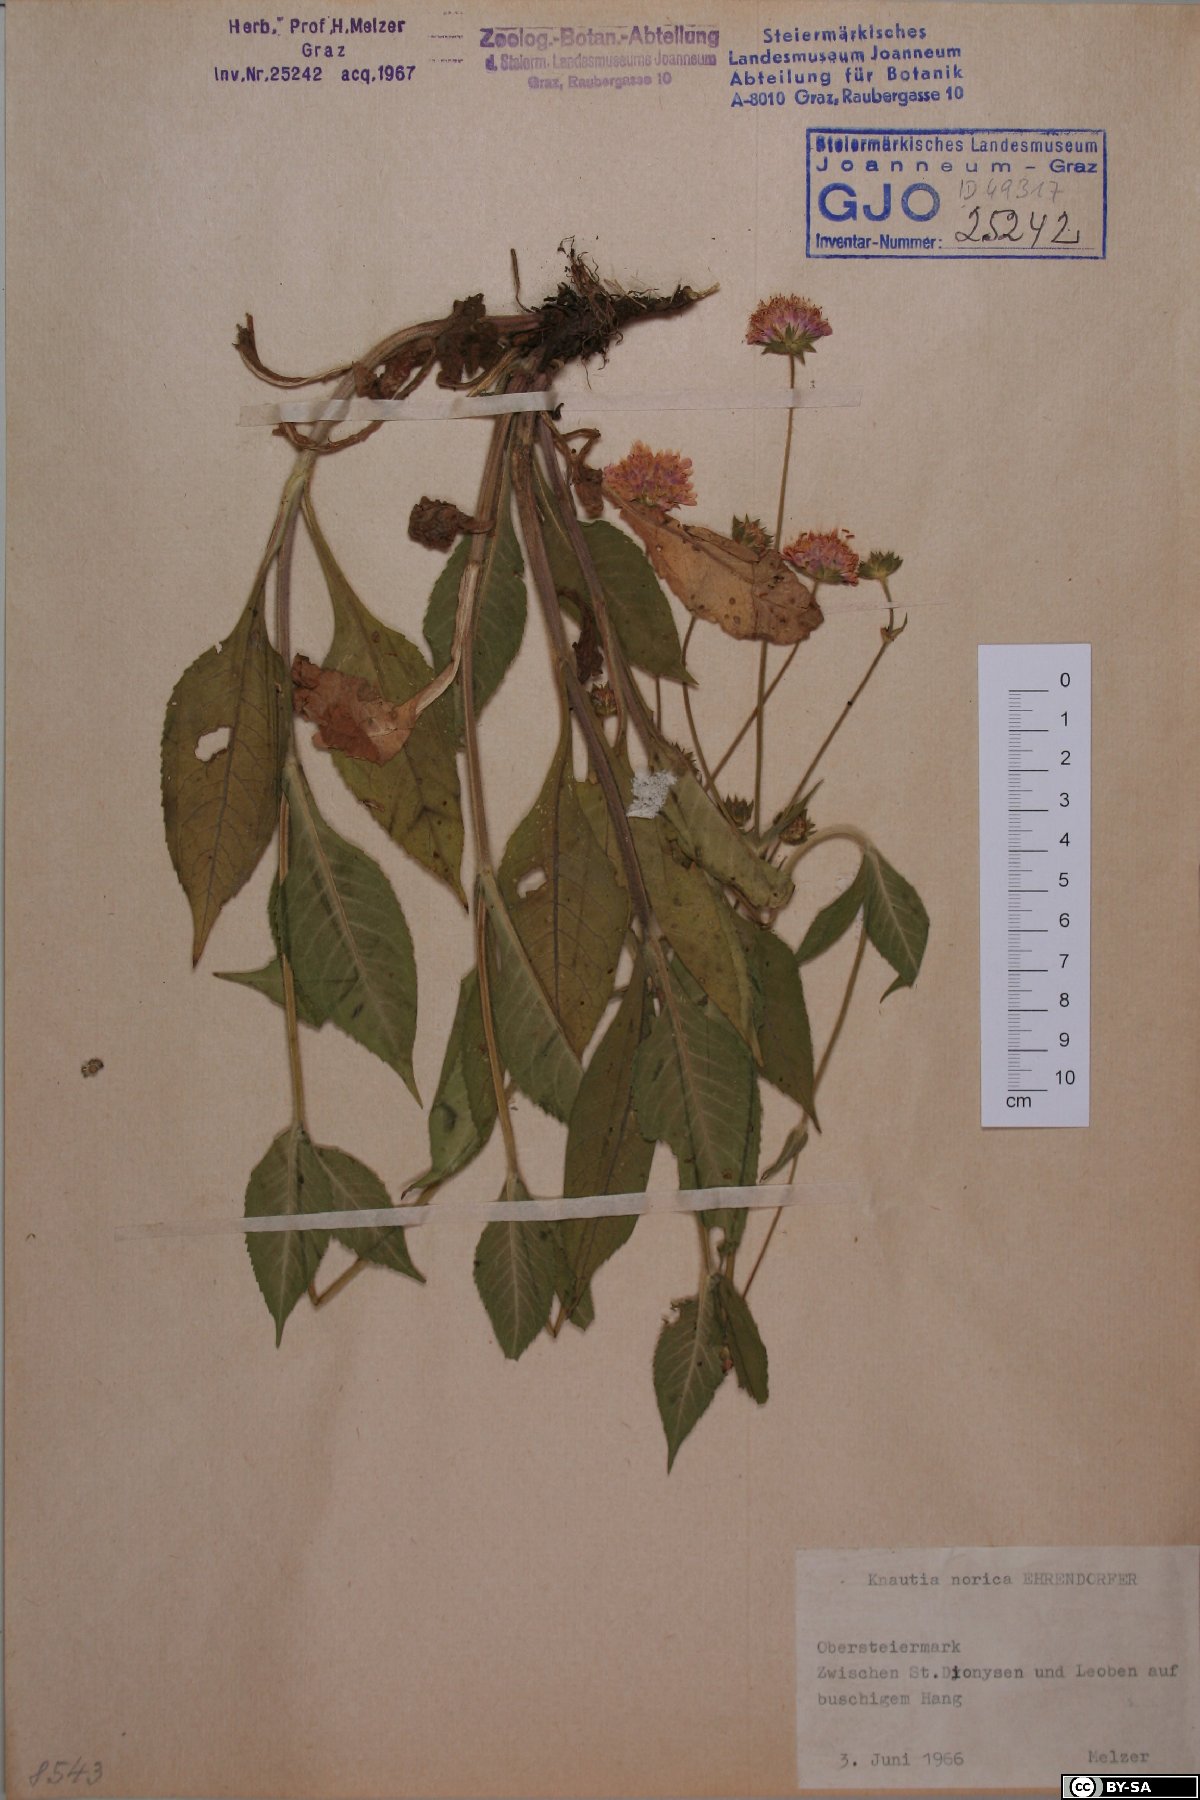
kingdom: Plantae
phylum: Tracheophyta
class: Magnoliopsida
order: Dipsacales
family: Caprifoliaceae
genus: Knautia
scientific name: Knautia norica
